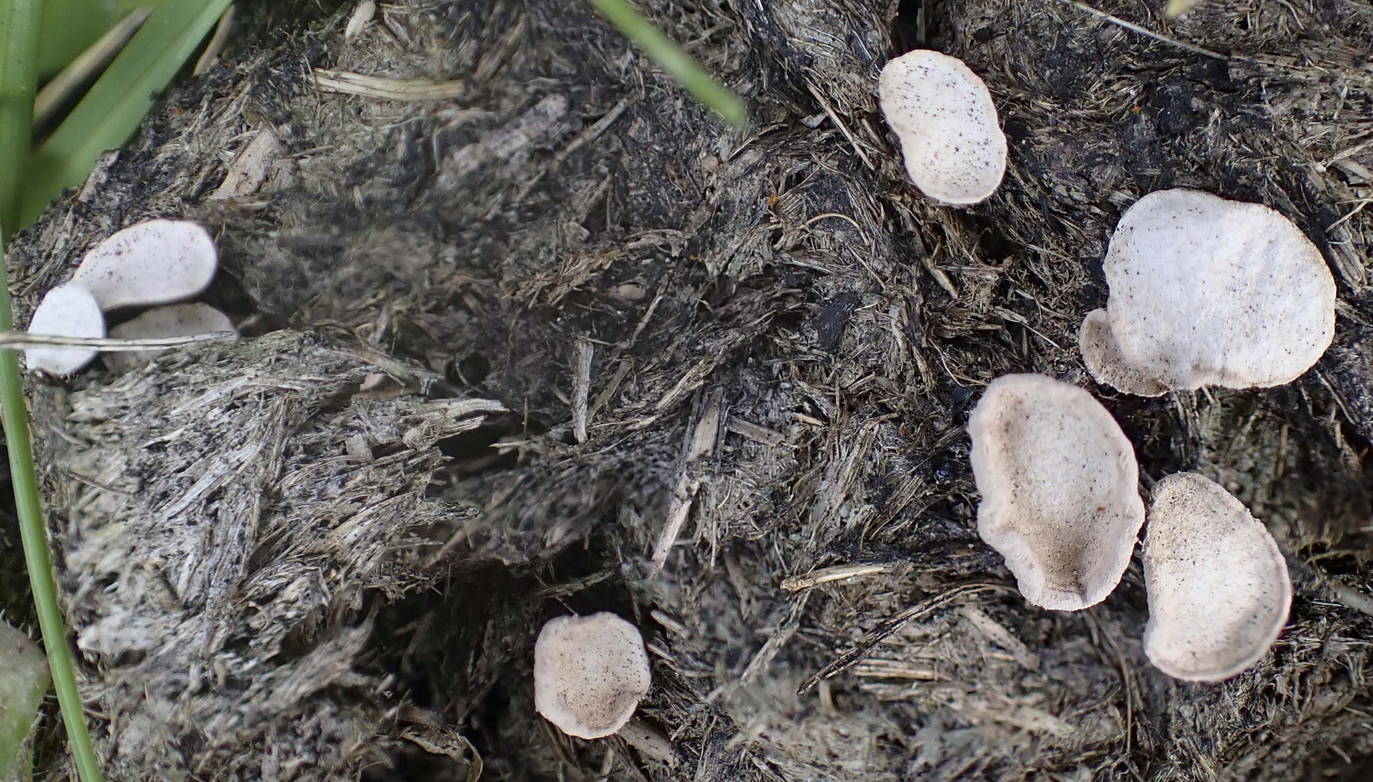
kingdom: Fungi
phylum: Ascomycota
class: Sordariomycetes
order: Xylariales
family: Xylariaceae
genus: Poronia
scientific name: Poronia punctata
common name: stor priksvamp
